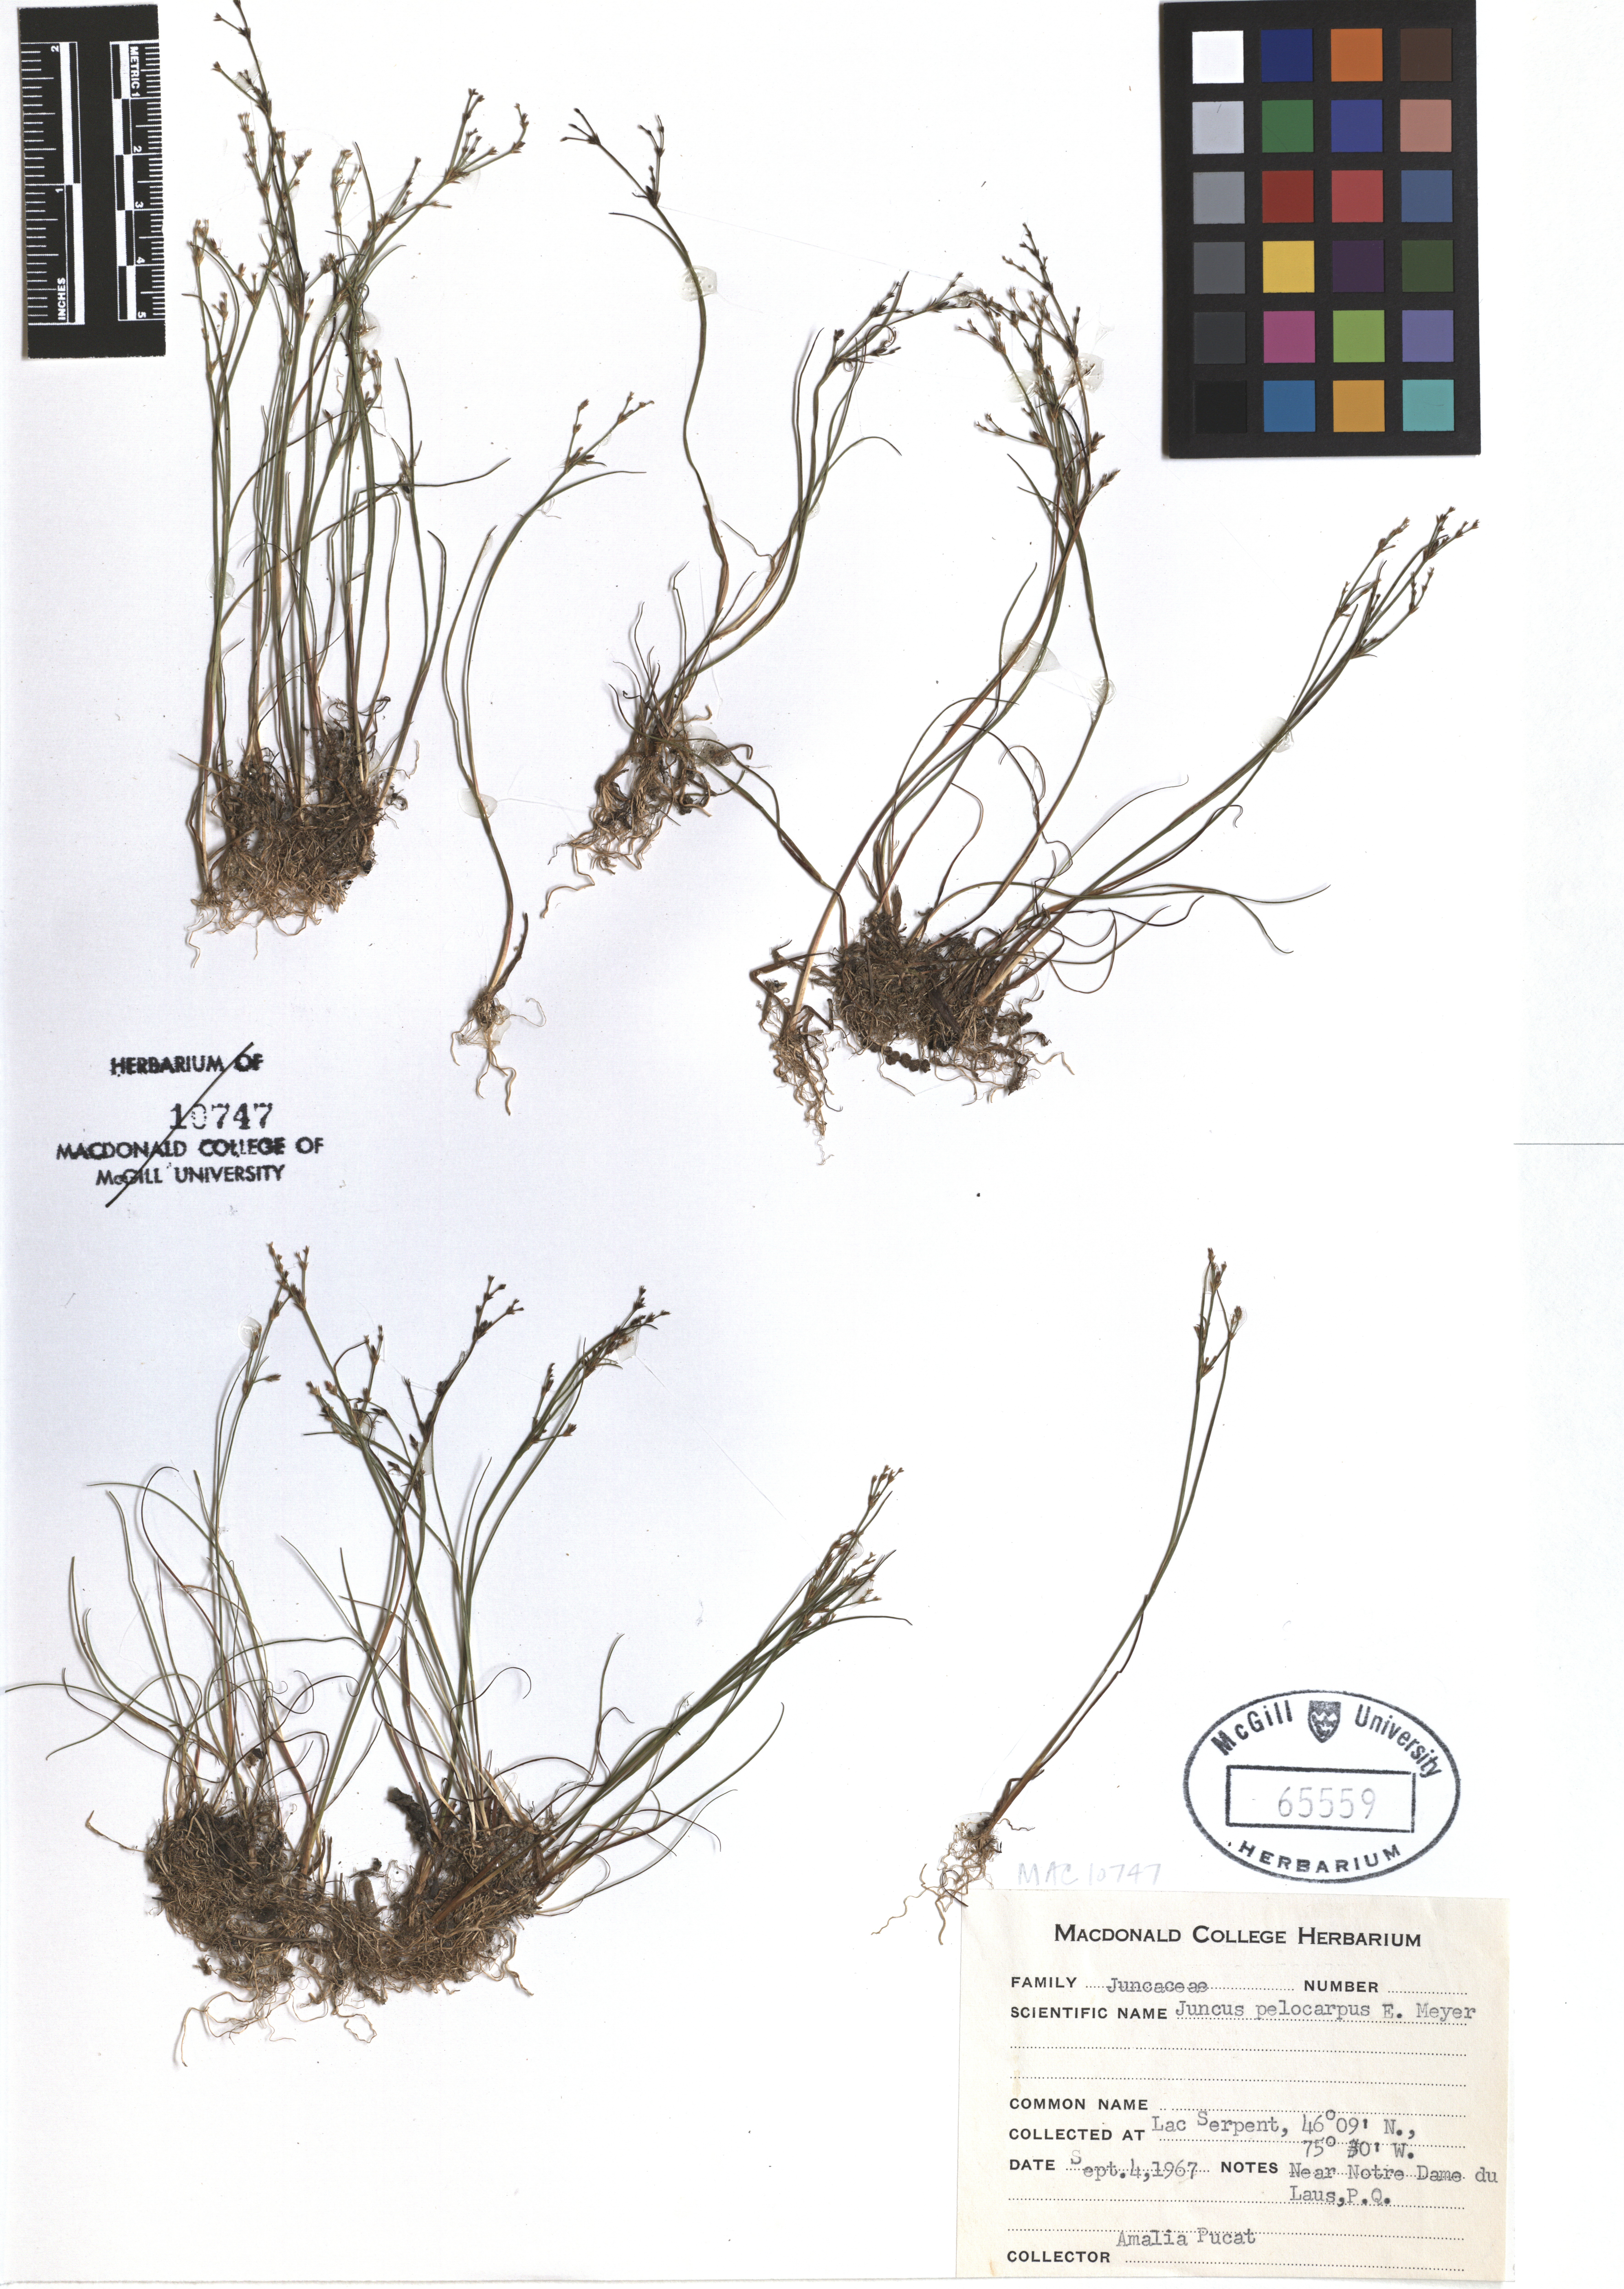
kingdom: Plantae
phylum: Tracheophyta
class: Liliopsida
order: Poales
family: Juncaceae
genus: Juncus
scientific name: Juncus pelocarpus
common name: Brown-fruited rush
